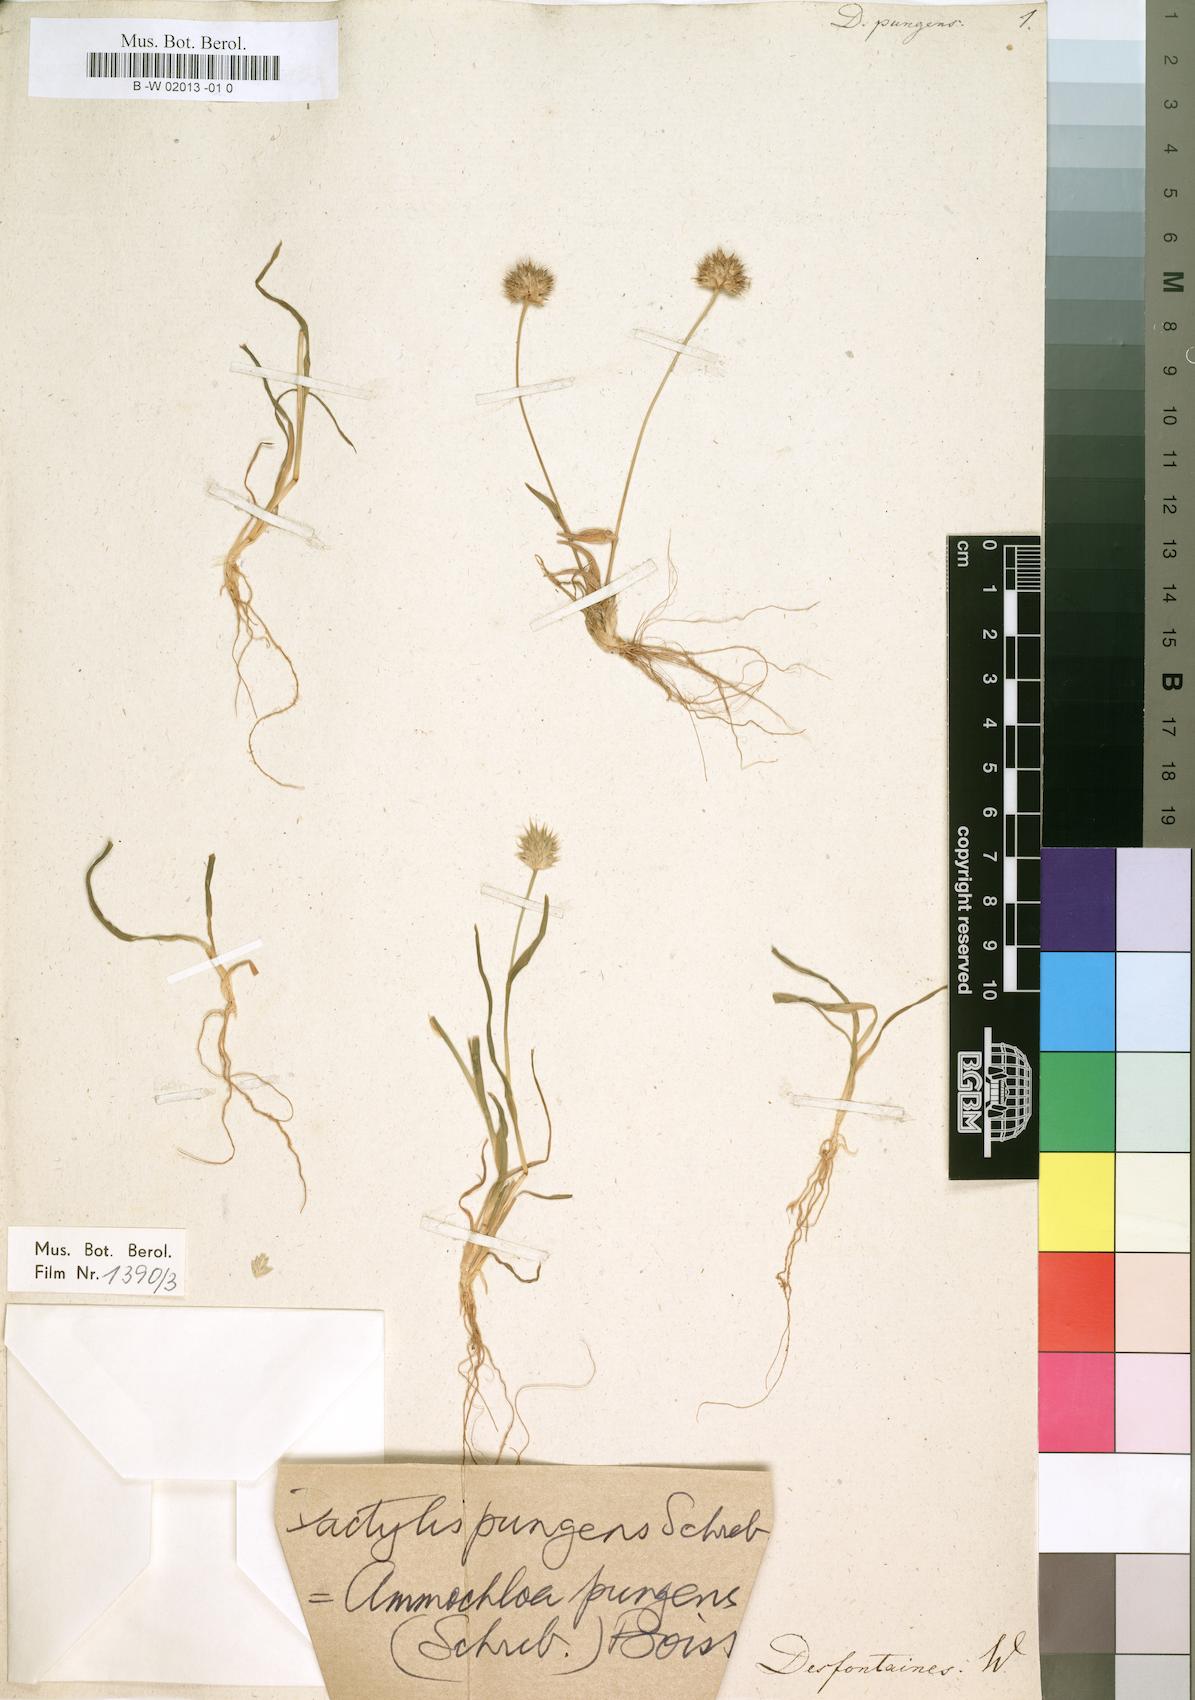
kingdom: Plantae
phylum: Tracheophyta
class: Liliopsida
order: Poales
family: Poaceae
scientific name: Poaceae
